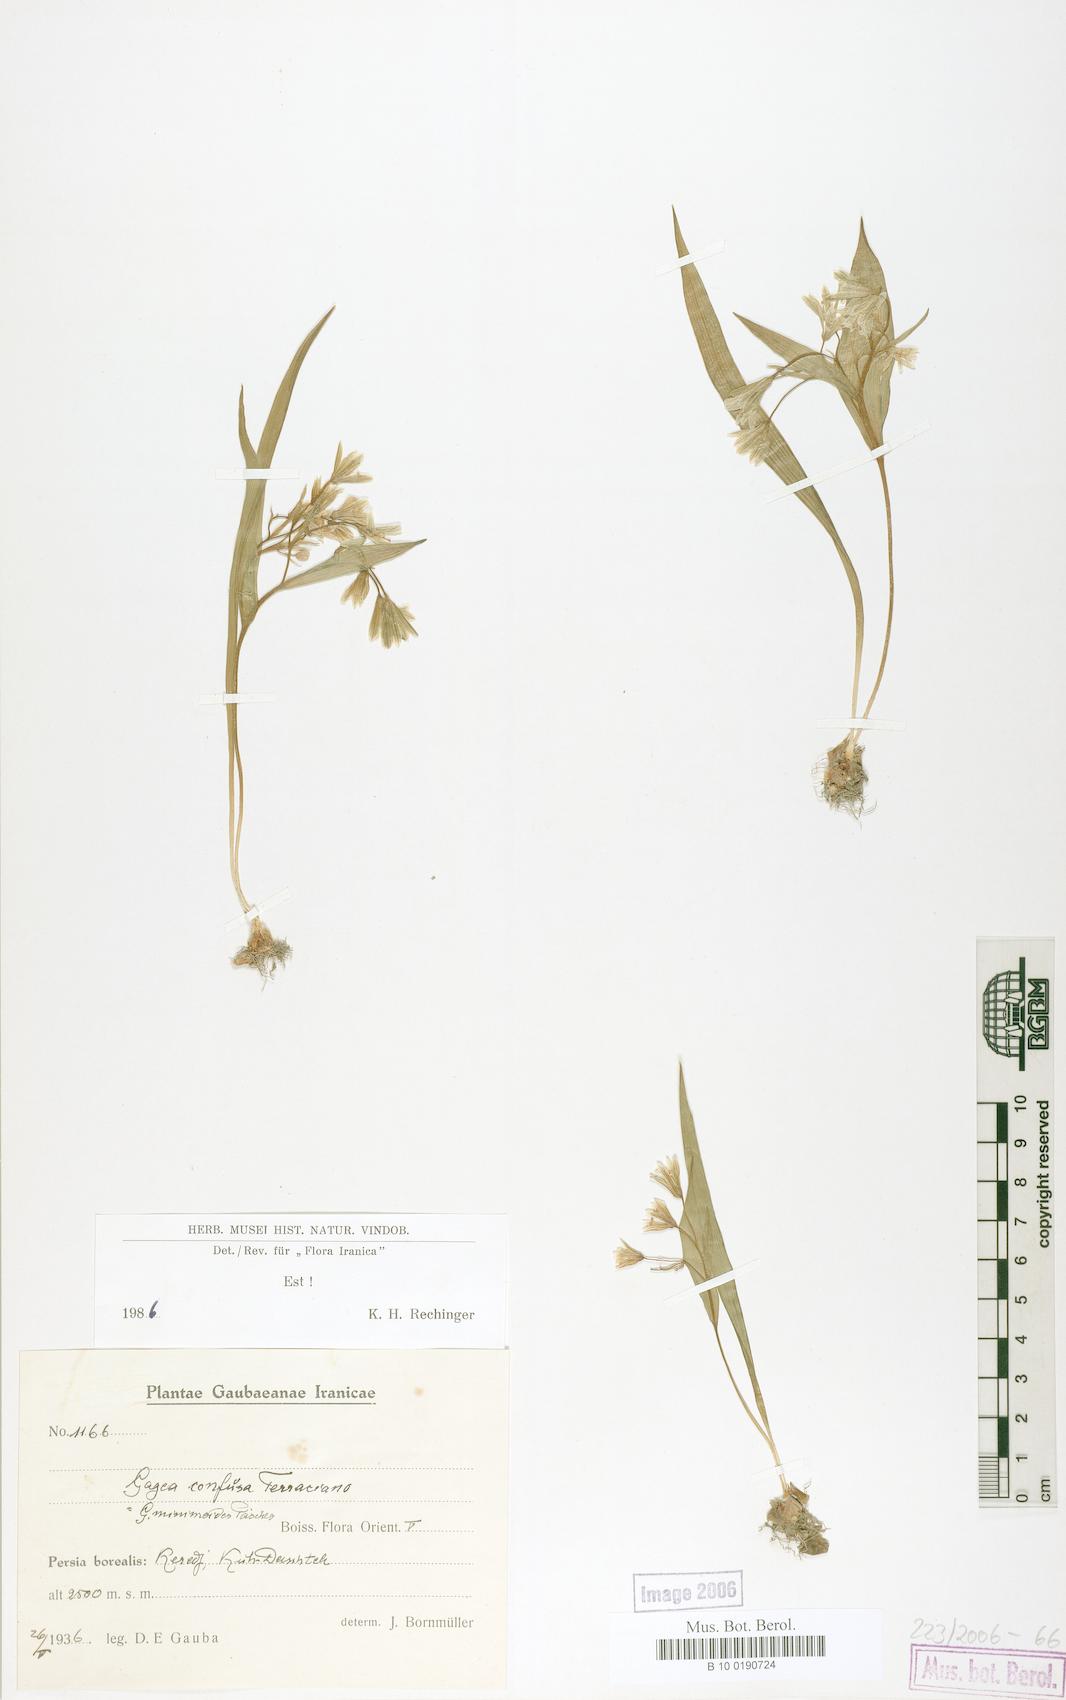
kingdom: Plantae
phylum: Tracheophyta
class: Liliopsida
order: Liliales
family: Liliaceae
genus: Gagea
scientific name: Gagea confusa
